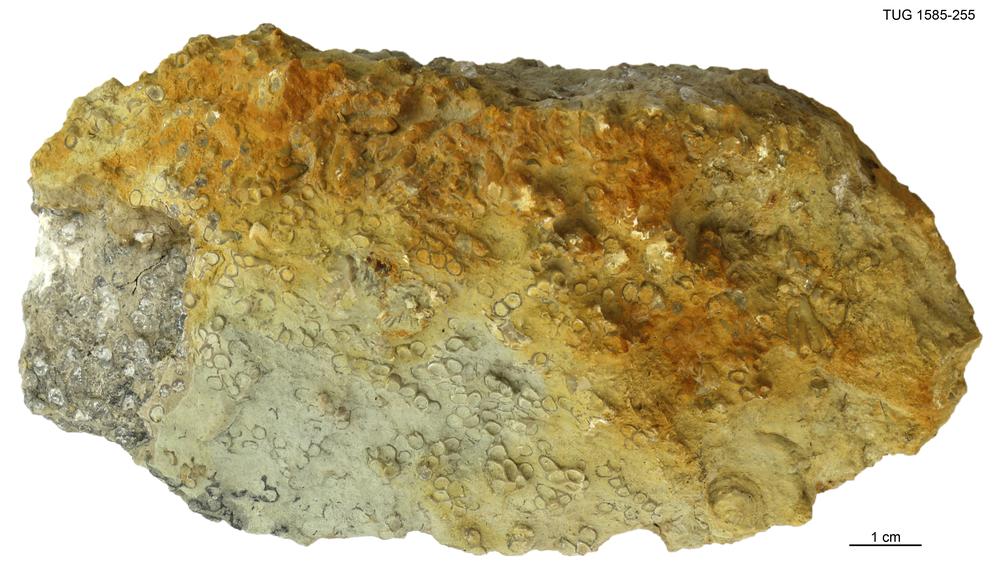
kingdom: Animalia
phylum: Cnidaria
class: Anthozoa
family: Auloporidae
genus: Eofletcheria
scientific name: Eofletcheria orvikui
